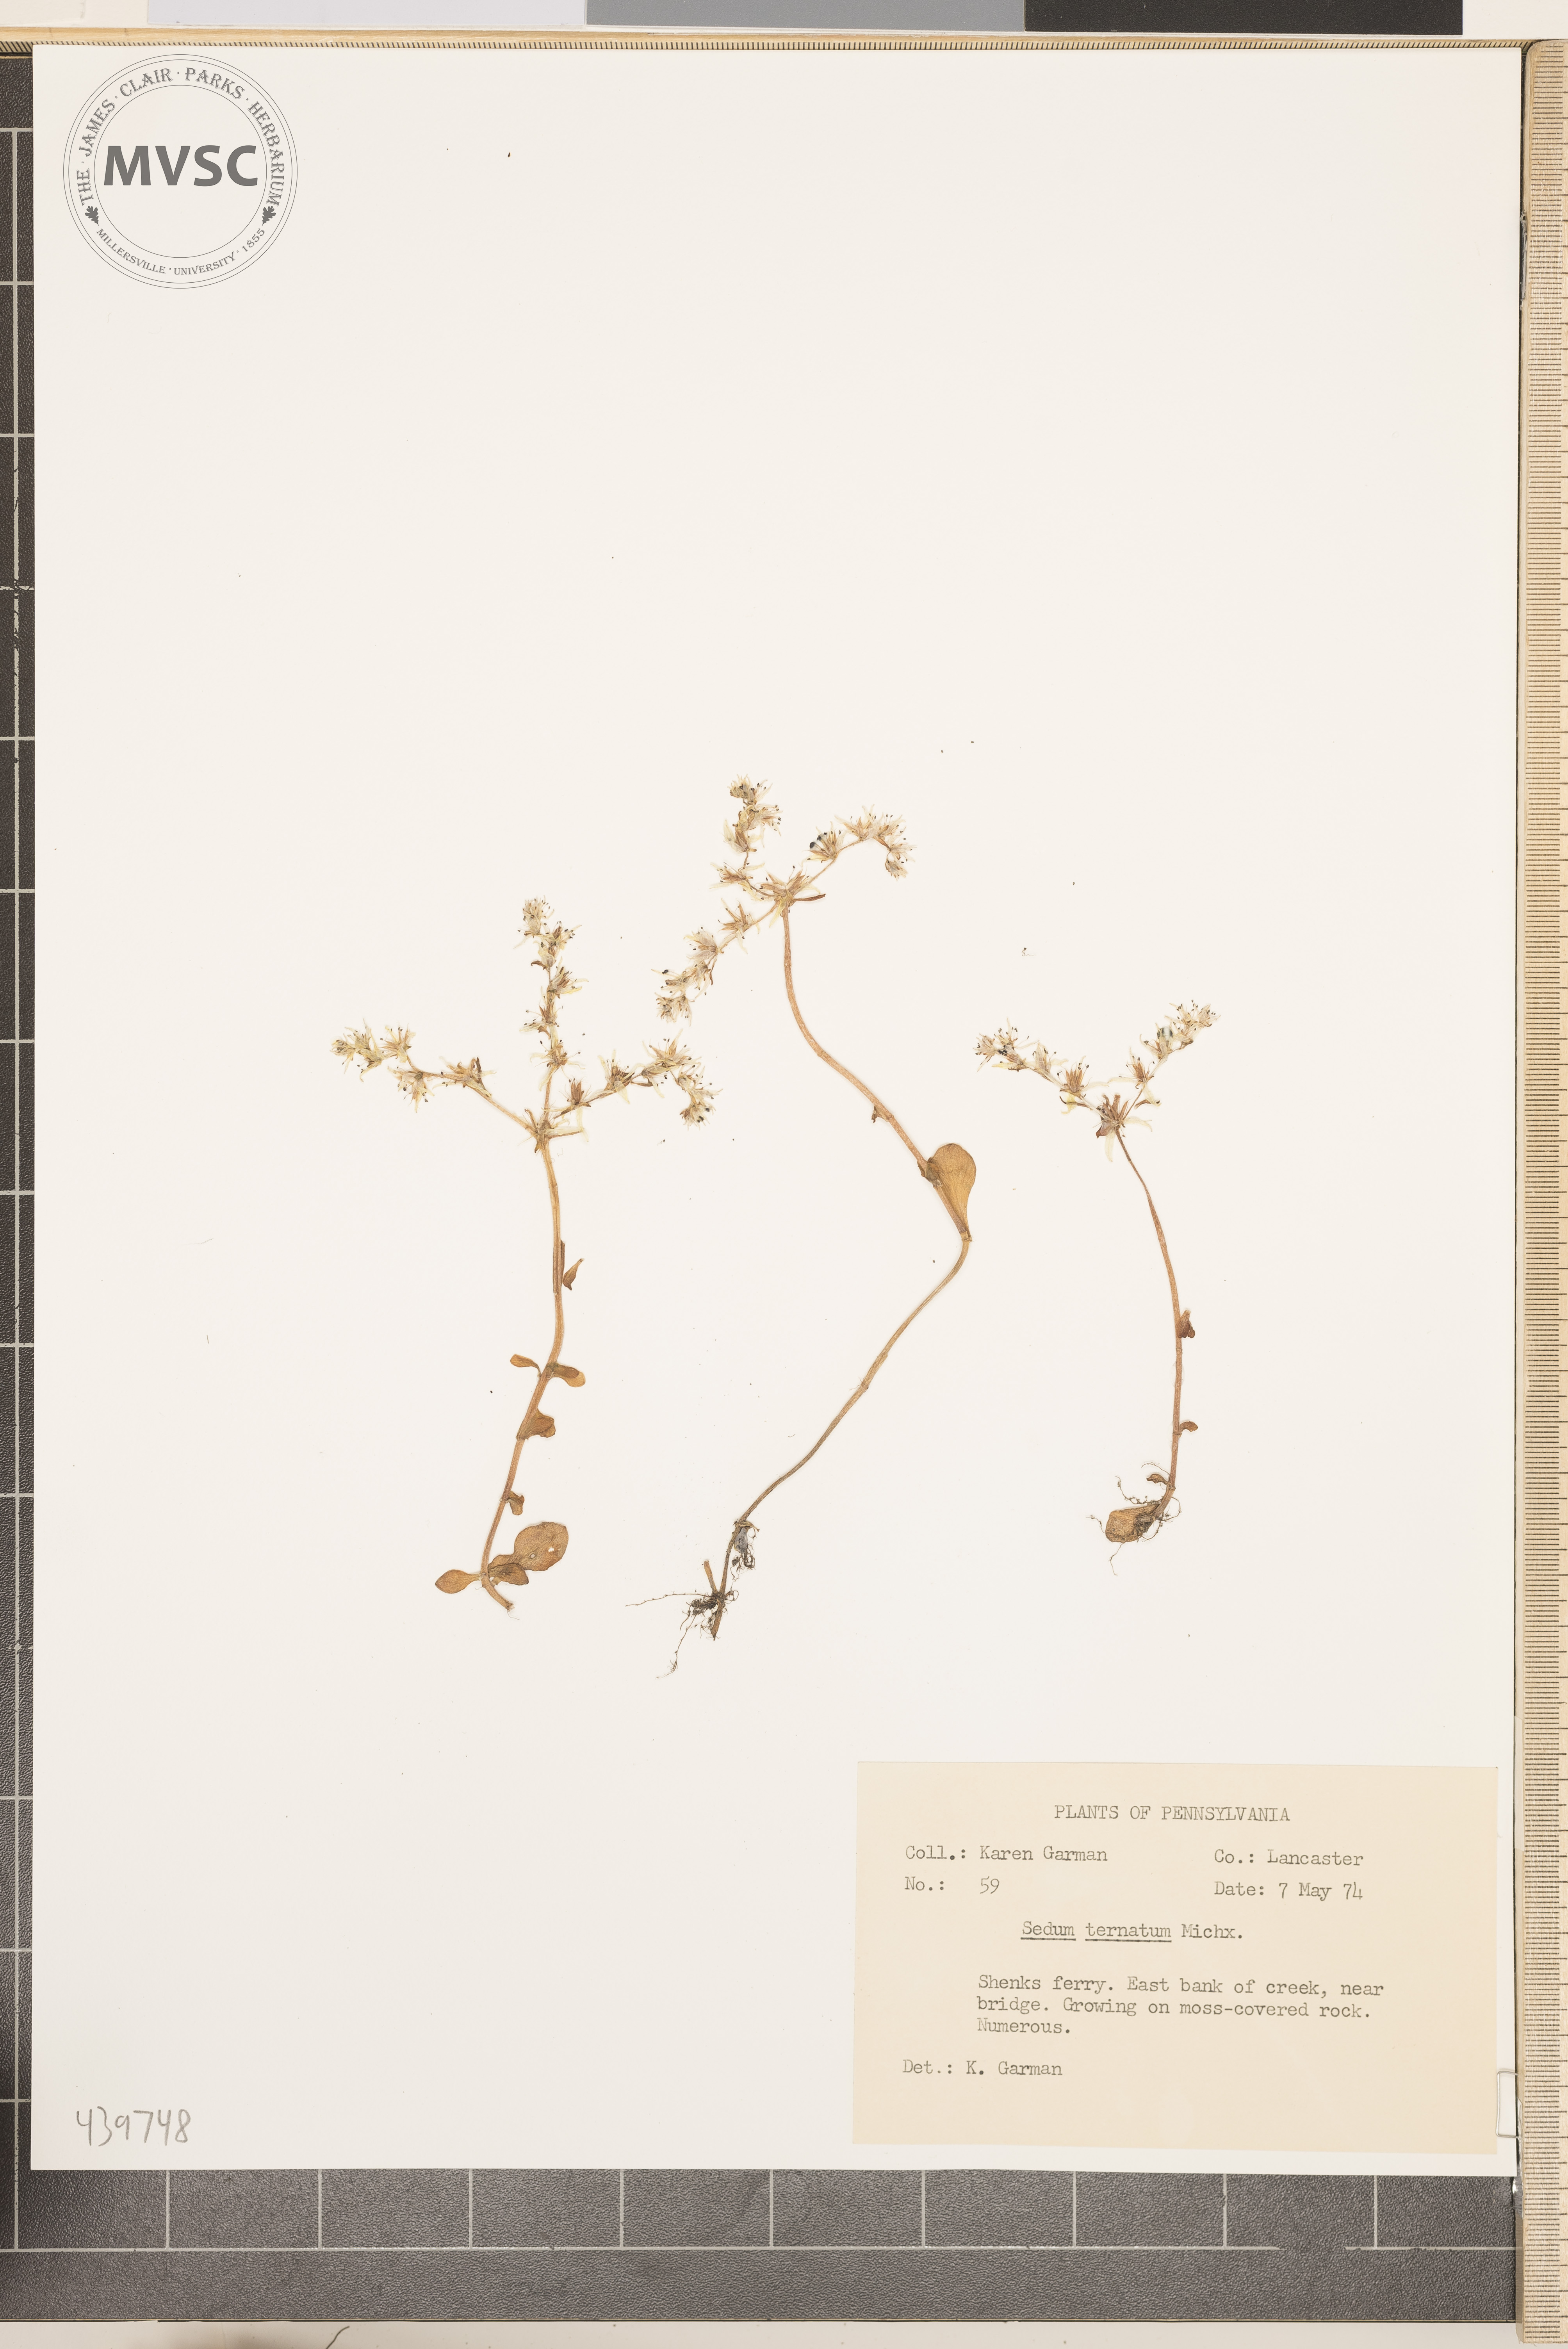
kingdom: Plantae
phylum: Tracheophyta
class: Magnoliopsida
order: Saxifragales
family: Crassulaceae
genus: Sedum
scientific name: Sedum ternatum
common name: Wild stonecrop
